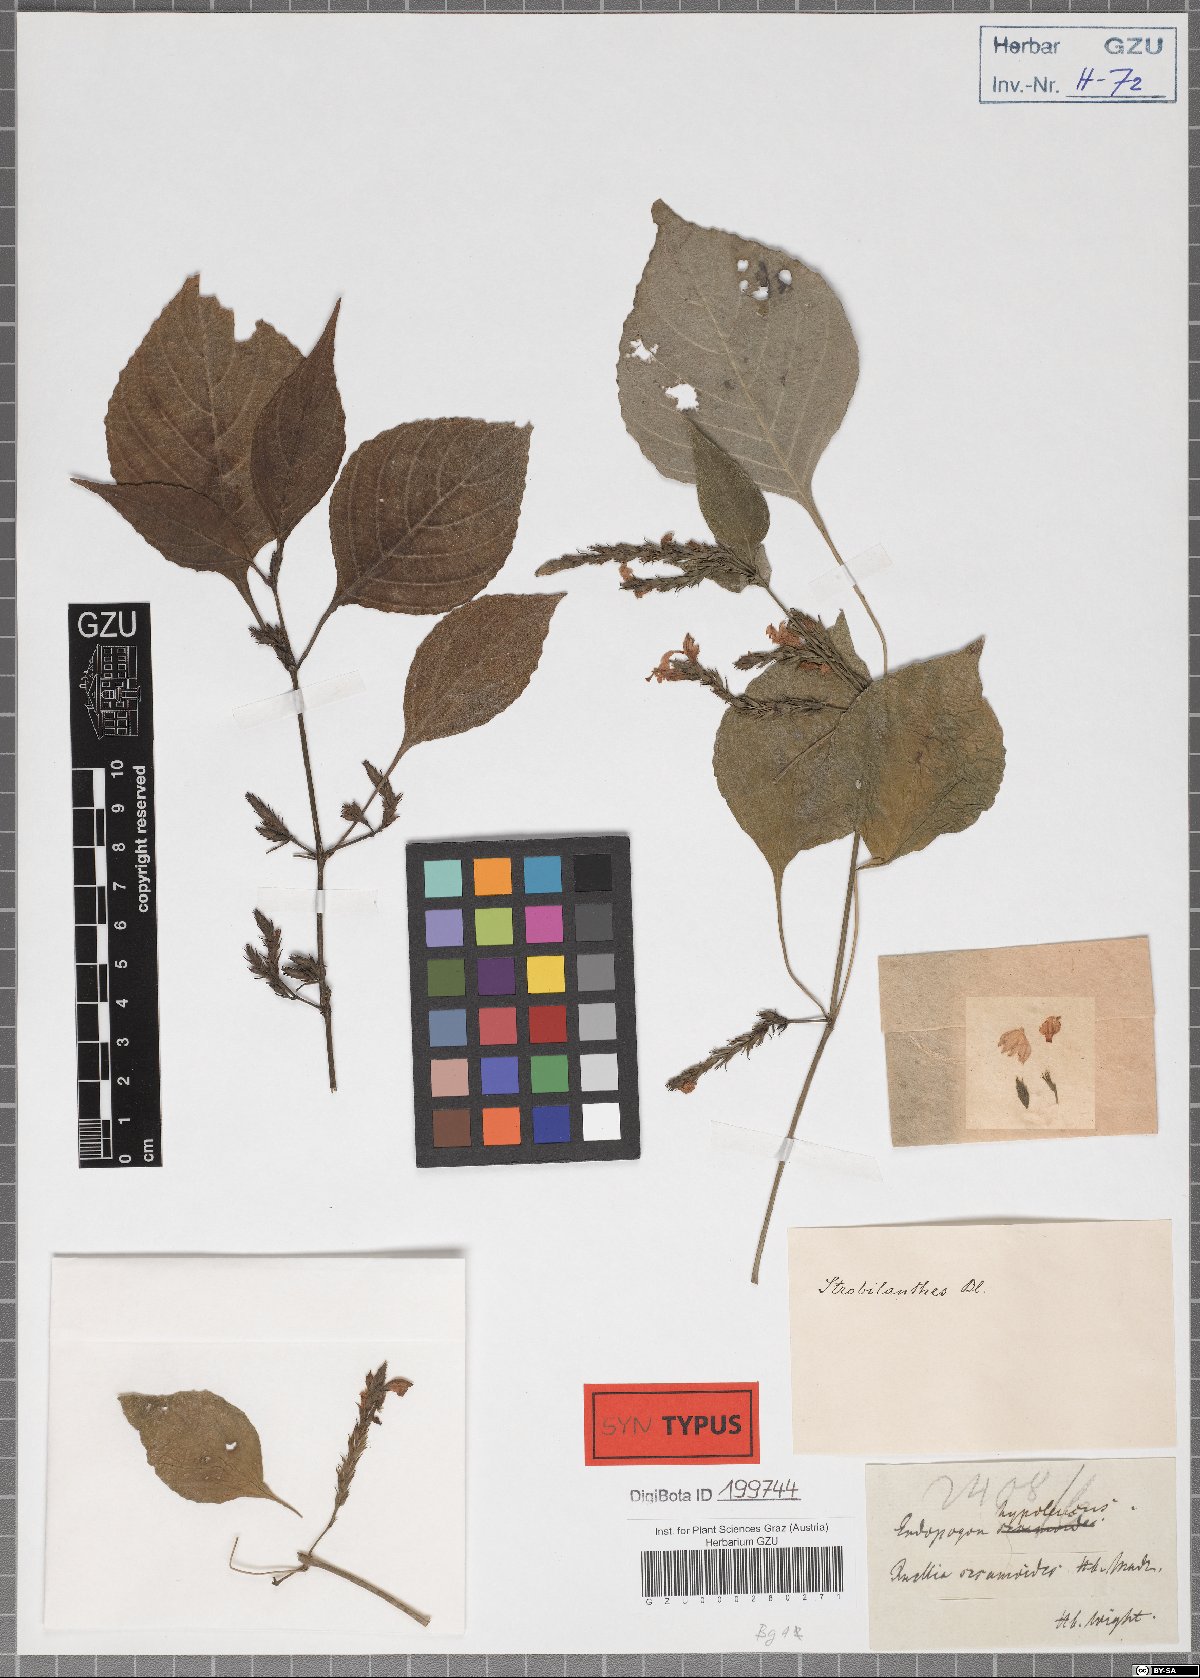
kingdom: Plantae
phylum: Tracheophyta
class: Magnoliopsida
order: Lamiales
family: Acanthaceae
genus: Strobilanthes
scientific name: Strobilanthes consanguinea
